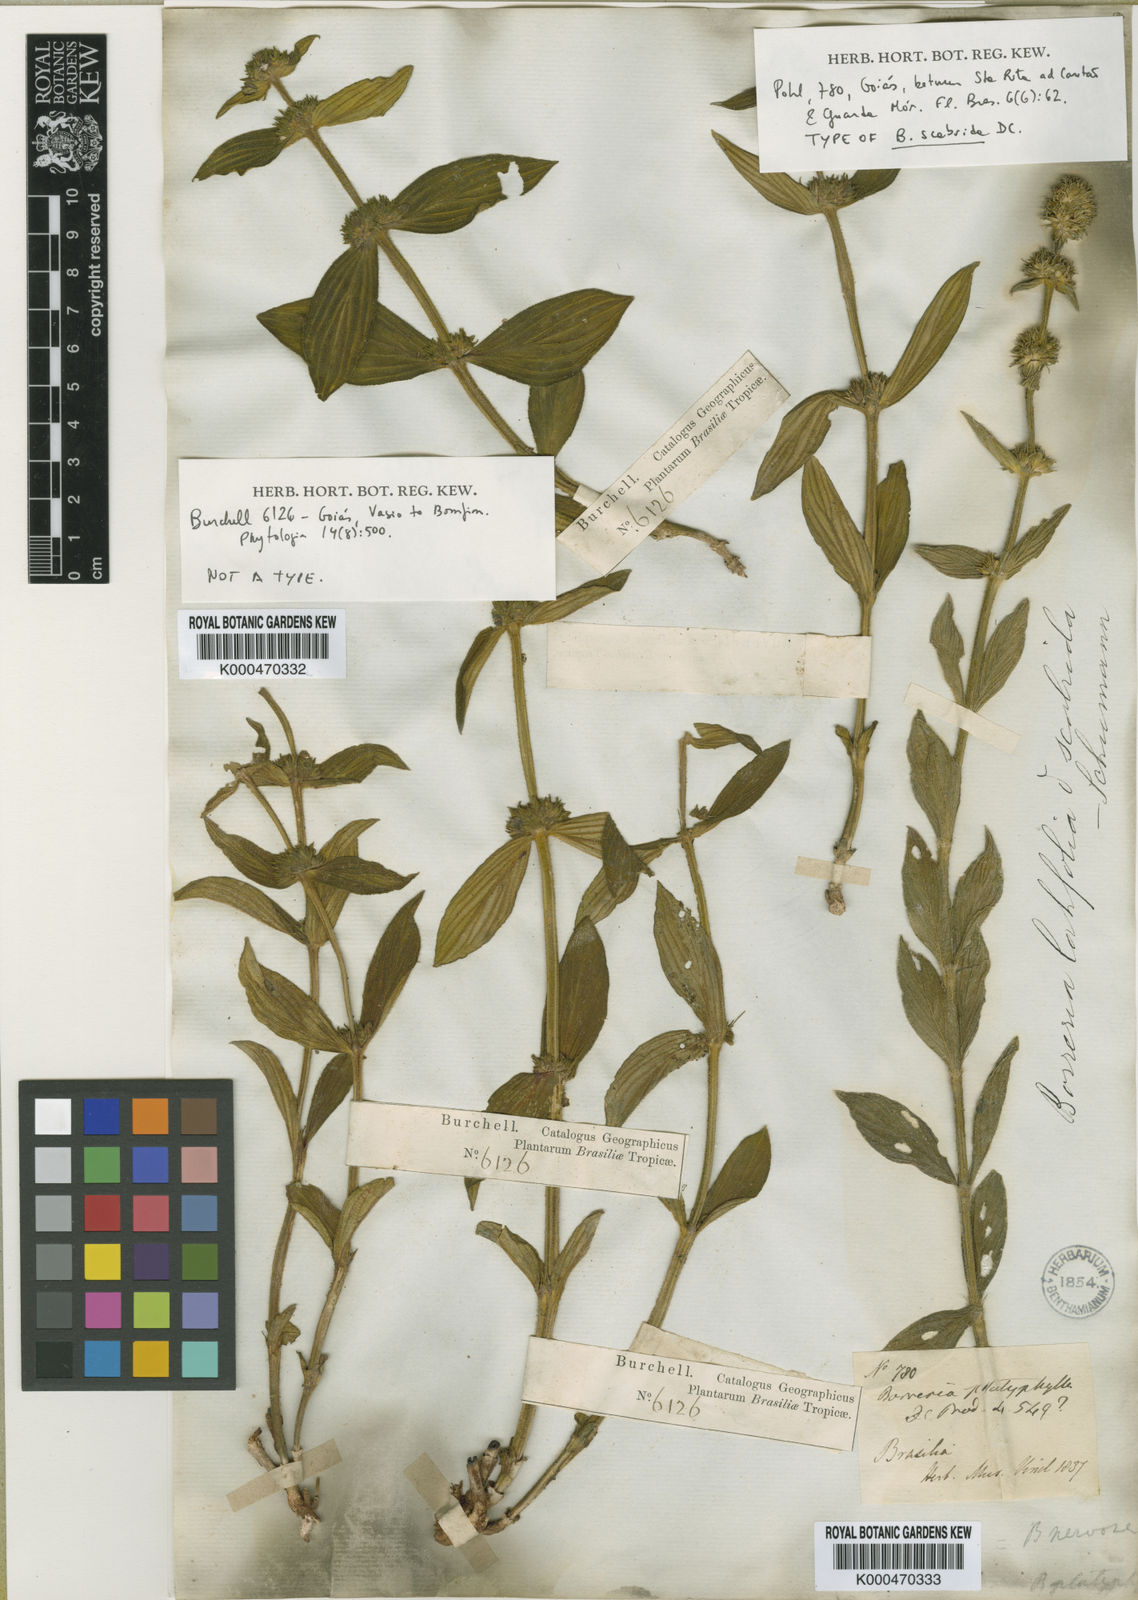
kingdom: Plantae
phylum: Tracheophyta
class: Magnoliopsida
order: Gentianales
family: Rubiaceae
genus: Spermacoce
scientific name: Spermacoce alata
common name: Winged false buttonweed
